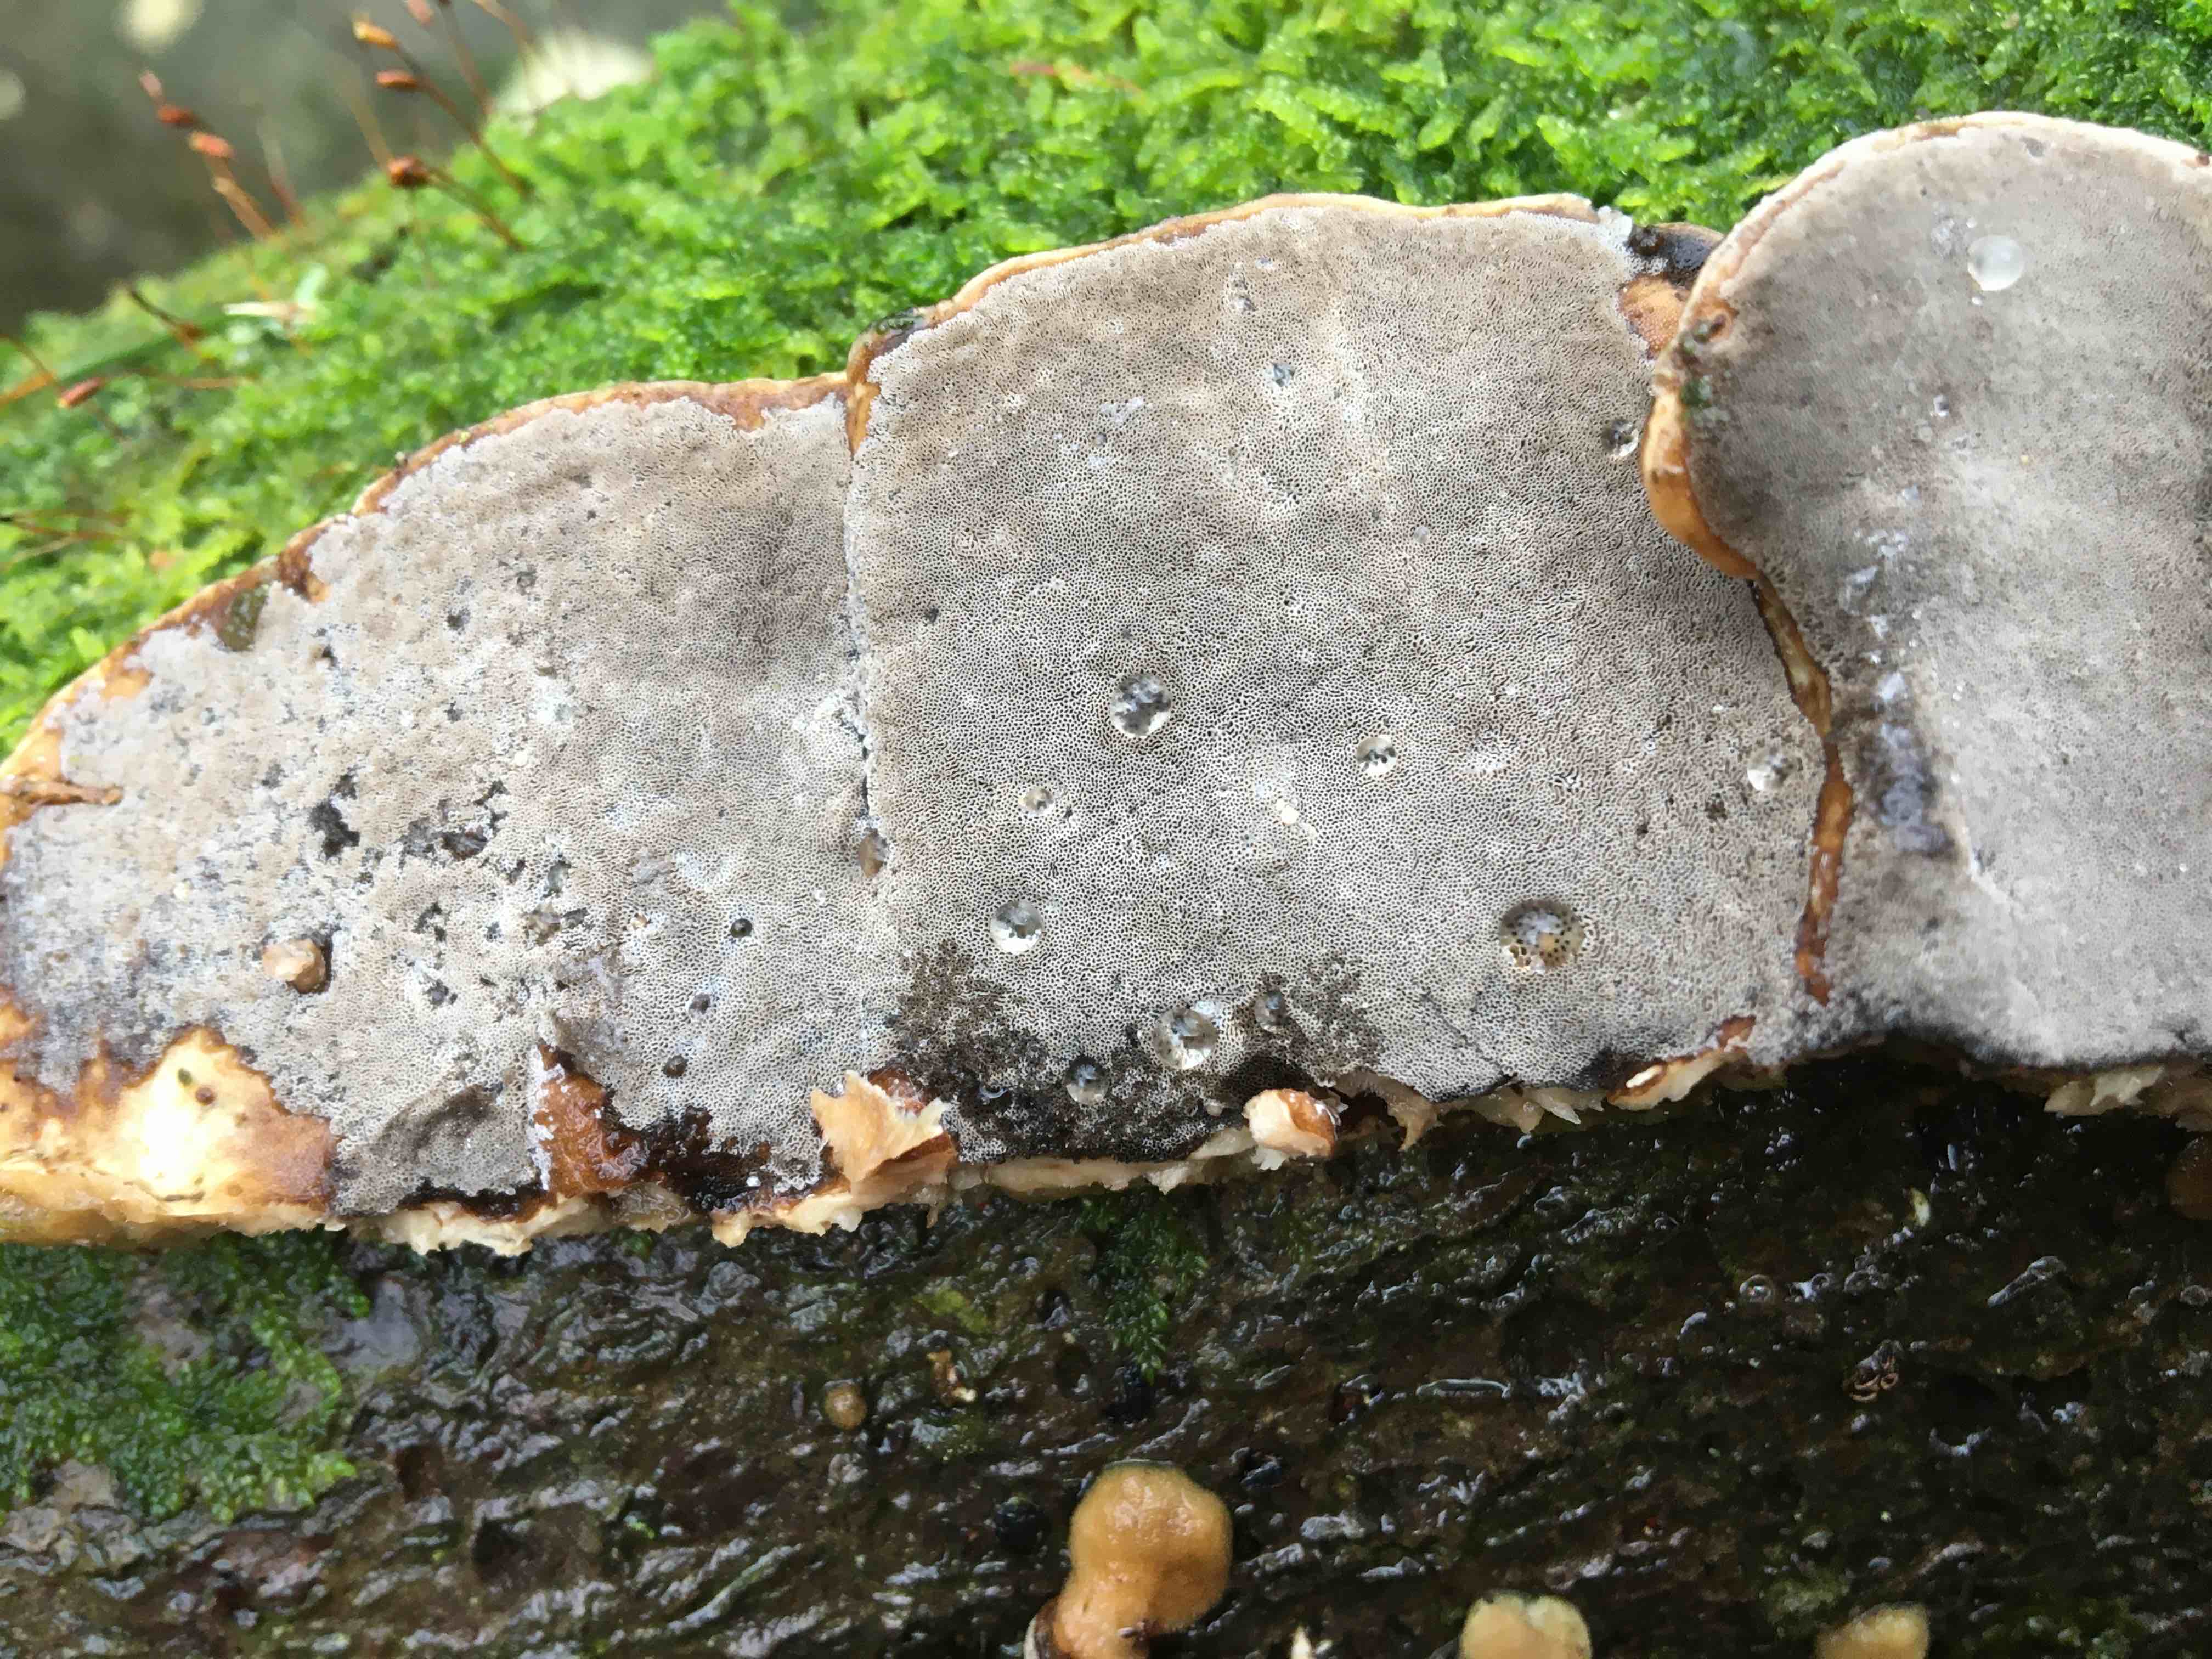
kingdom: Fungi
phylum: Basidiomycota
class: Agaricomycetes
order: Polyporales
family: Phanerochaetaceae
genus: Bjerkandera
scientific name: Bjerkandera adusta
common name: sveden sodporesvamp
